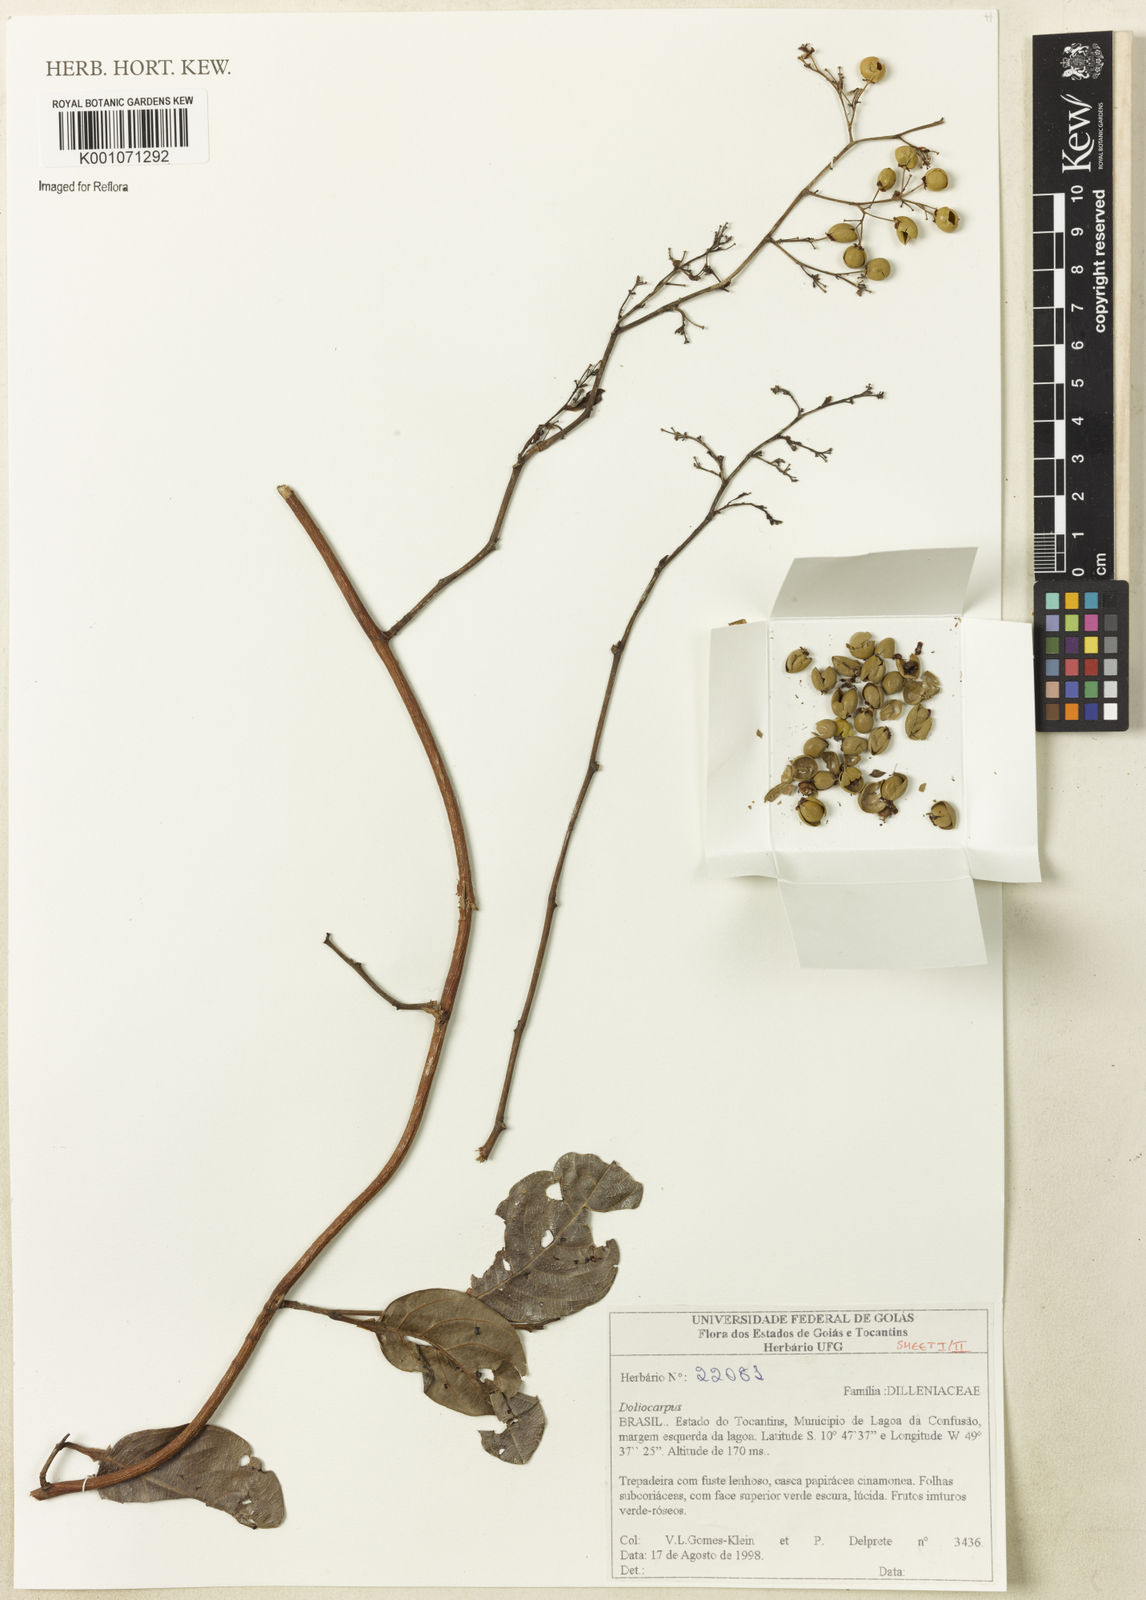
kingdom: Plantae
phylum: Tracheophyta
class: Magnoliopsida
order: Dilleniales
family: Dilleniaceae
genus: Doliocarpus
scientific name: Doliocarpus
